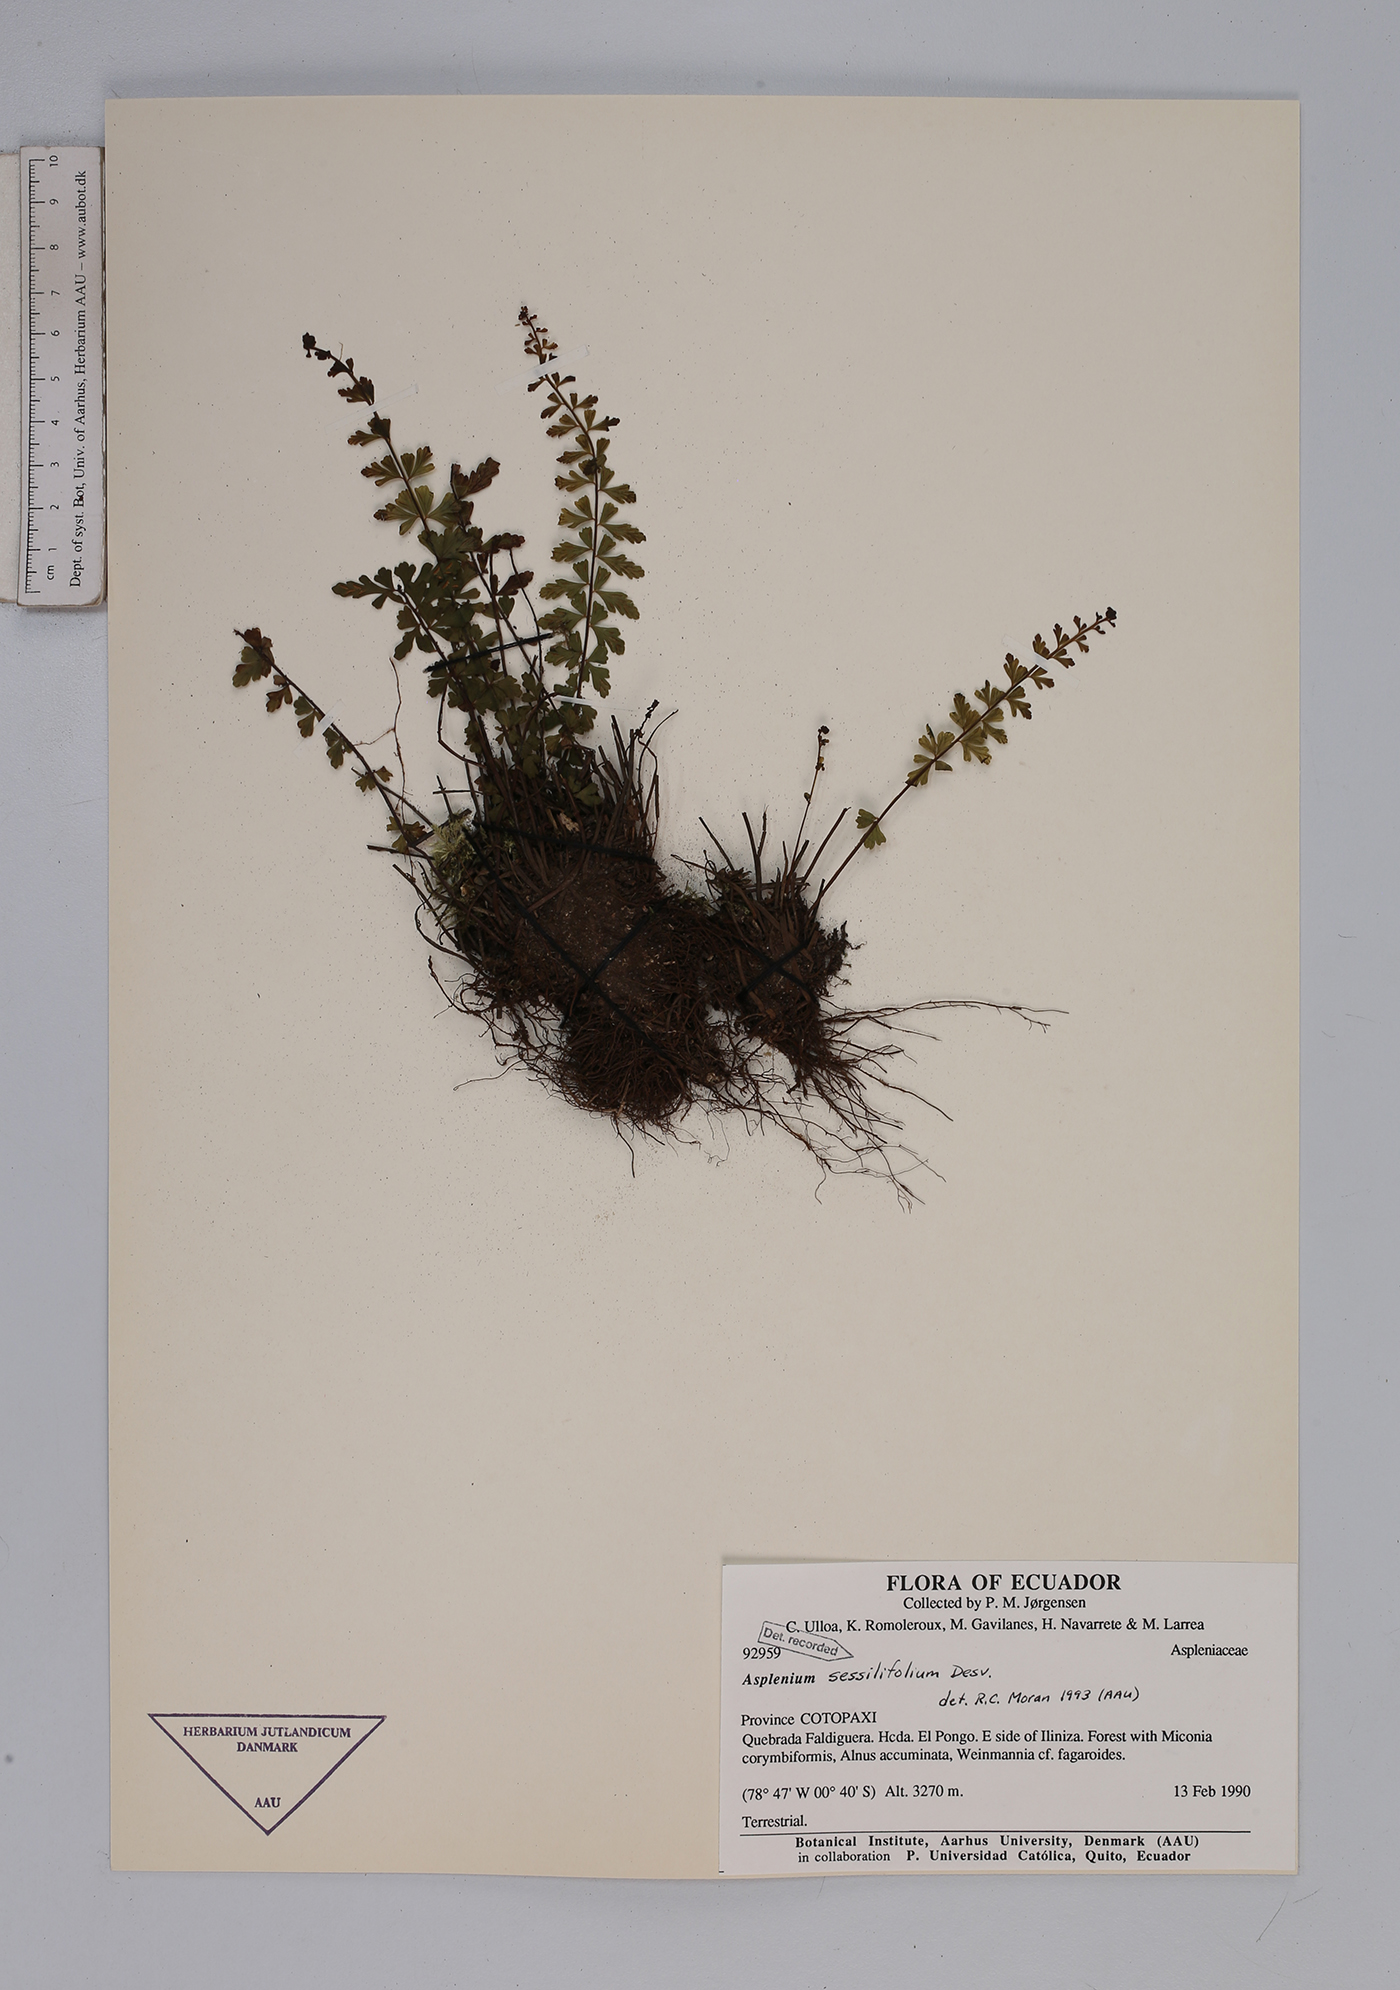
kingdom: Plantae
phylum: Tracheophyta
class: Magnoliopsida
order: Dipsacales
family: Viburnaceae
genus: Viburnum
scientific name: Viburnum pichinchense
